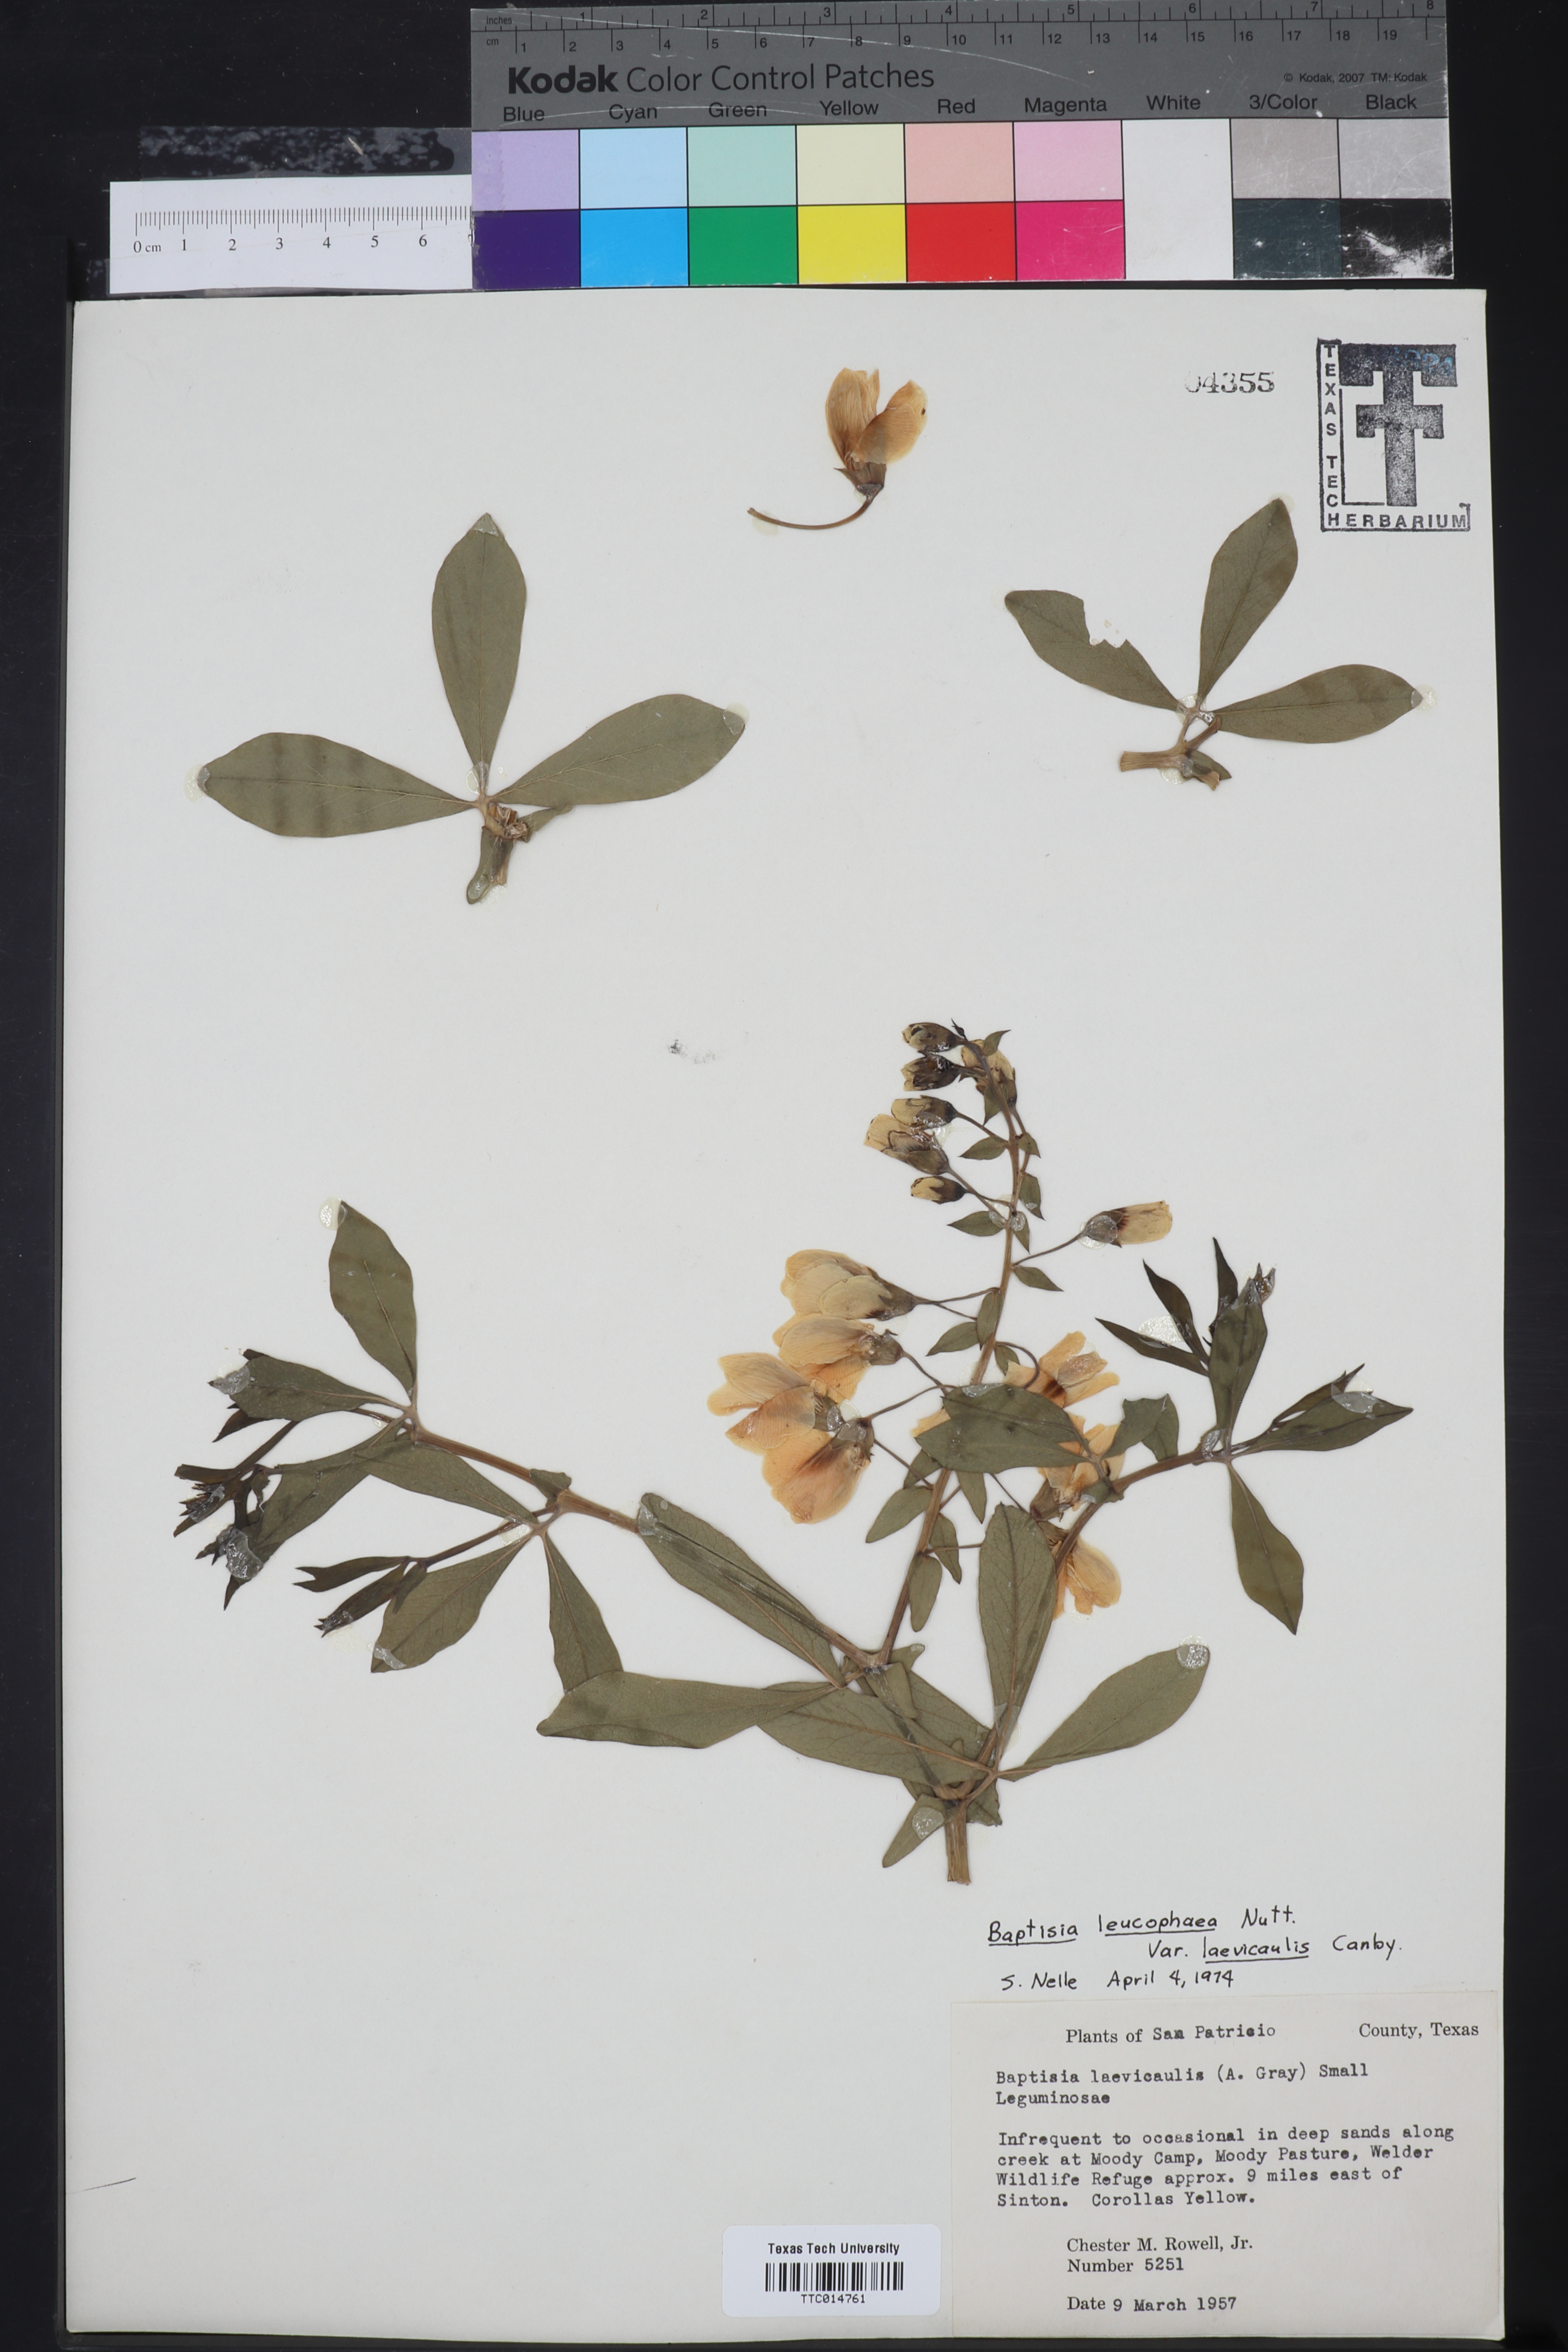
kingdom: Plantae
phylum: Tracheophyta
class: Magnoliopsida
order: Fabales
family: Fabaceae
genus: Baptisia
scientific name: Baptisia bracteata
